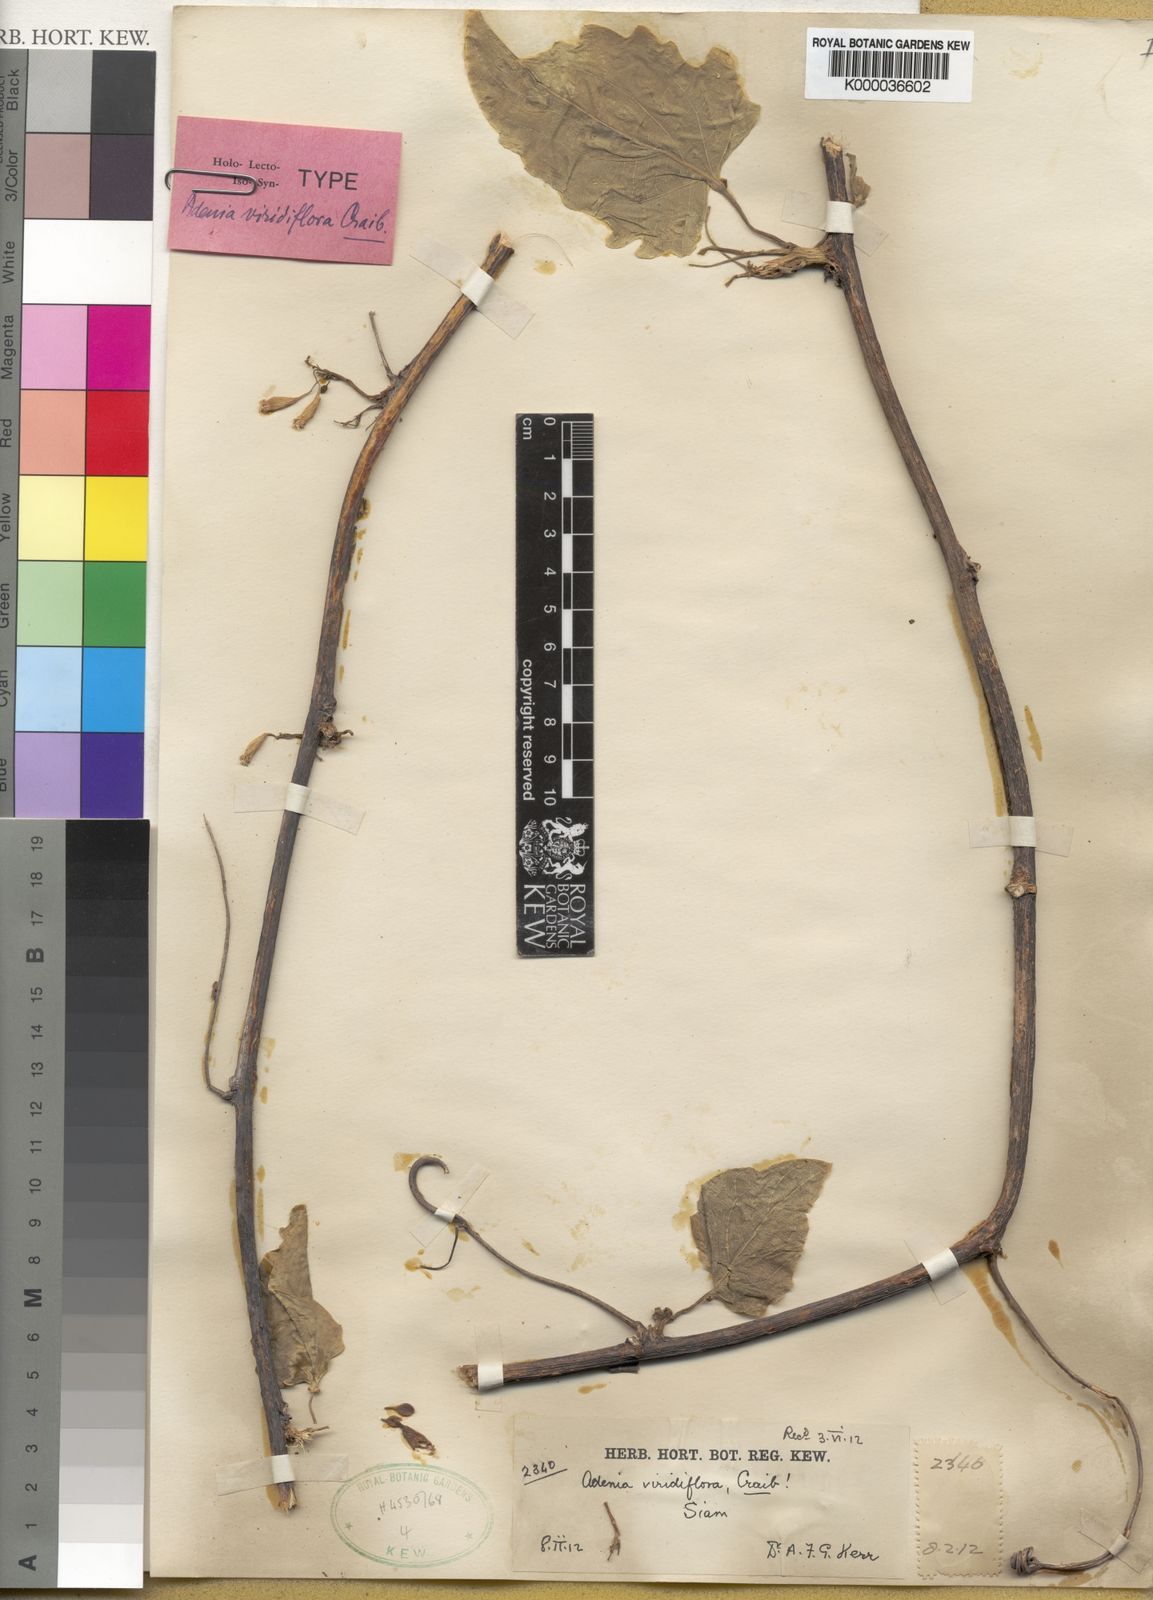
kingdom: Plantae
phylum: Tracheophyta
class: Magnoliopsida
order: Malpighiales
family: Passifloraceae
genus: Adenia
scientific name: Adenia viridiflora
